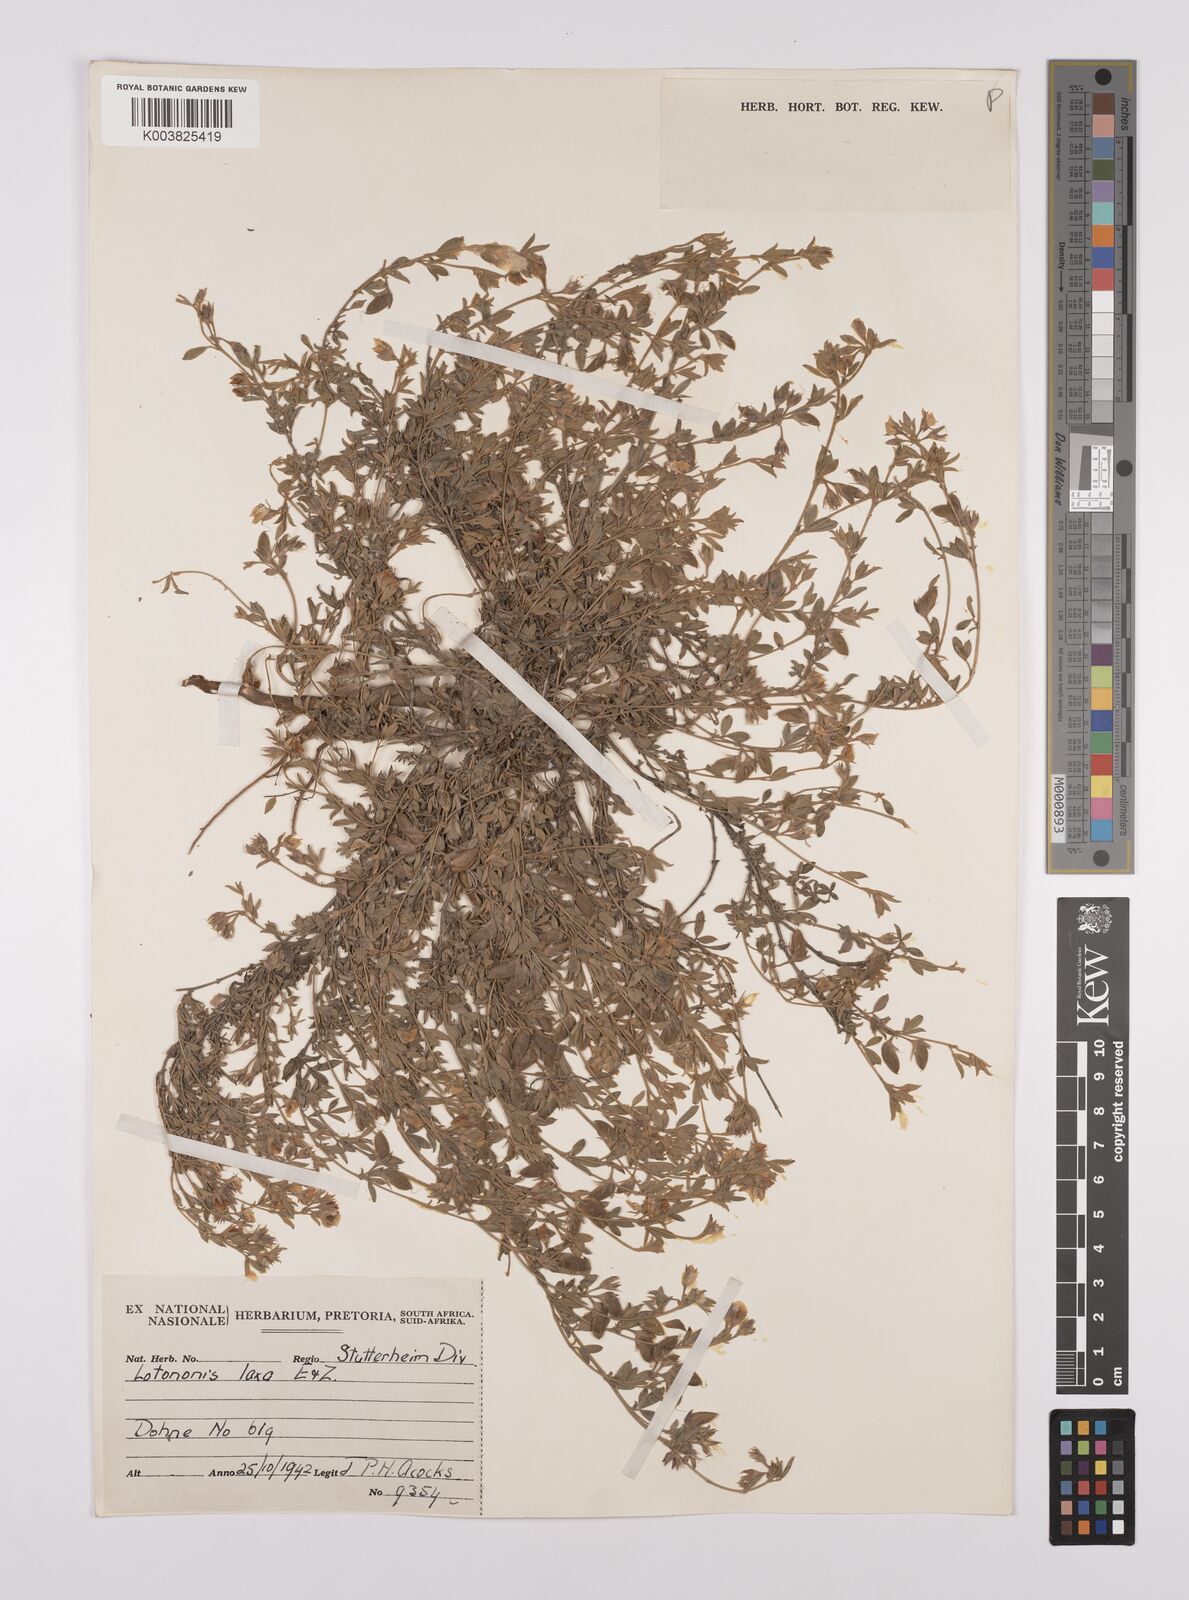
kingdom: Plantae
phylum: Tracheophyta
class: Magnoliopsida
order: Fabales
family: Fabaceae
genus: Lotononis
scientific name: Lotononis laxa
